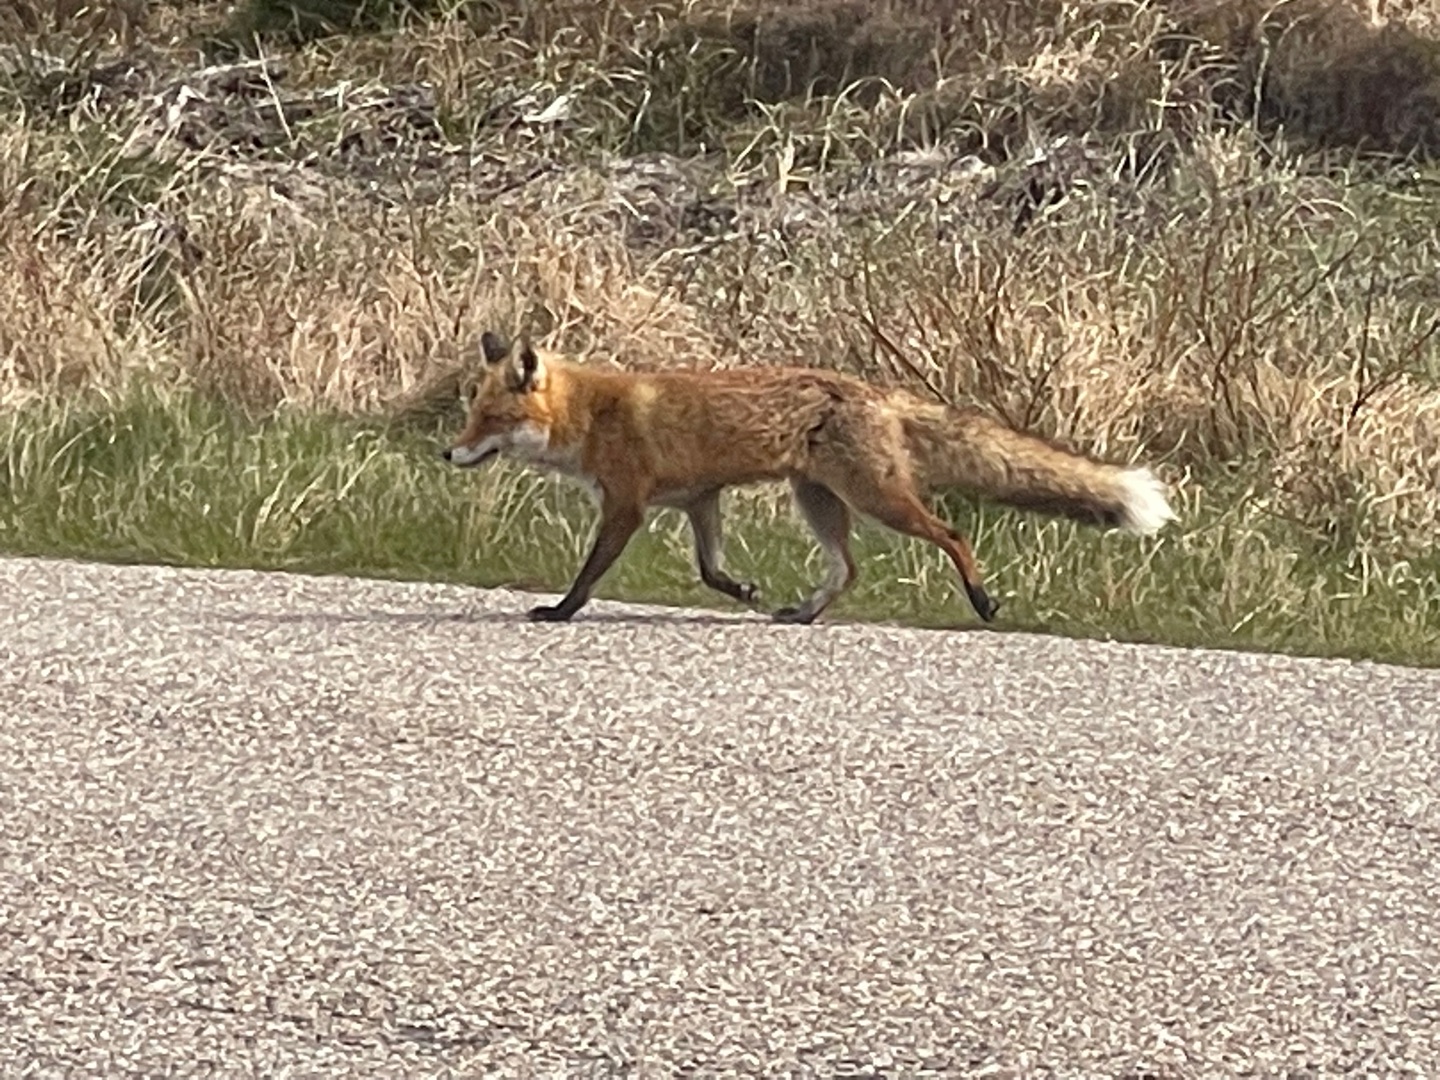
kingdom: Animalia
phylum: Chordata
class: Mammalia
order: Carnivora
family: Canidae
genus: Vulpes
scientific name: Vulpes vulpes
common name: Ræv
